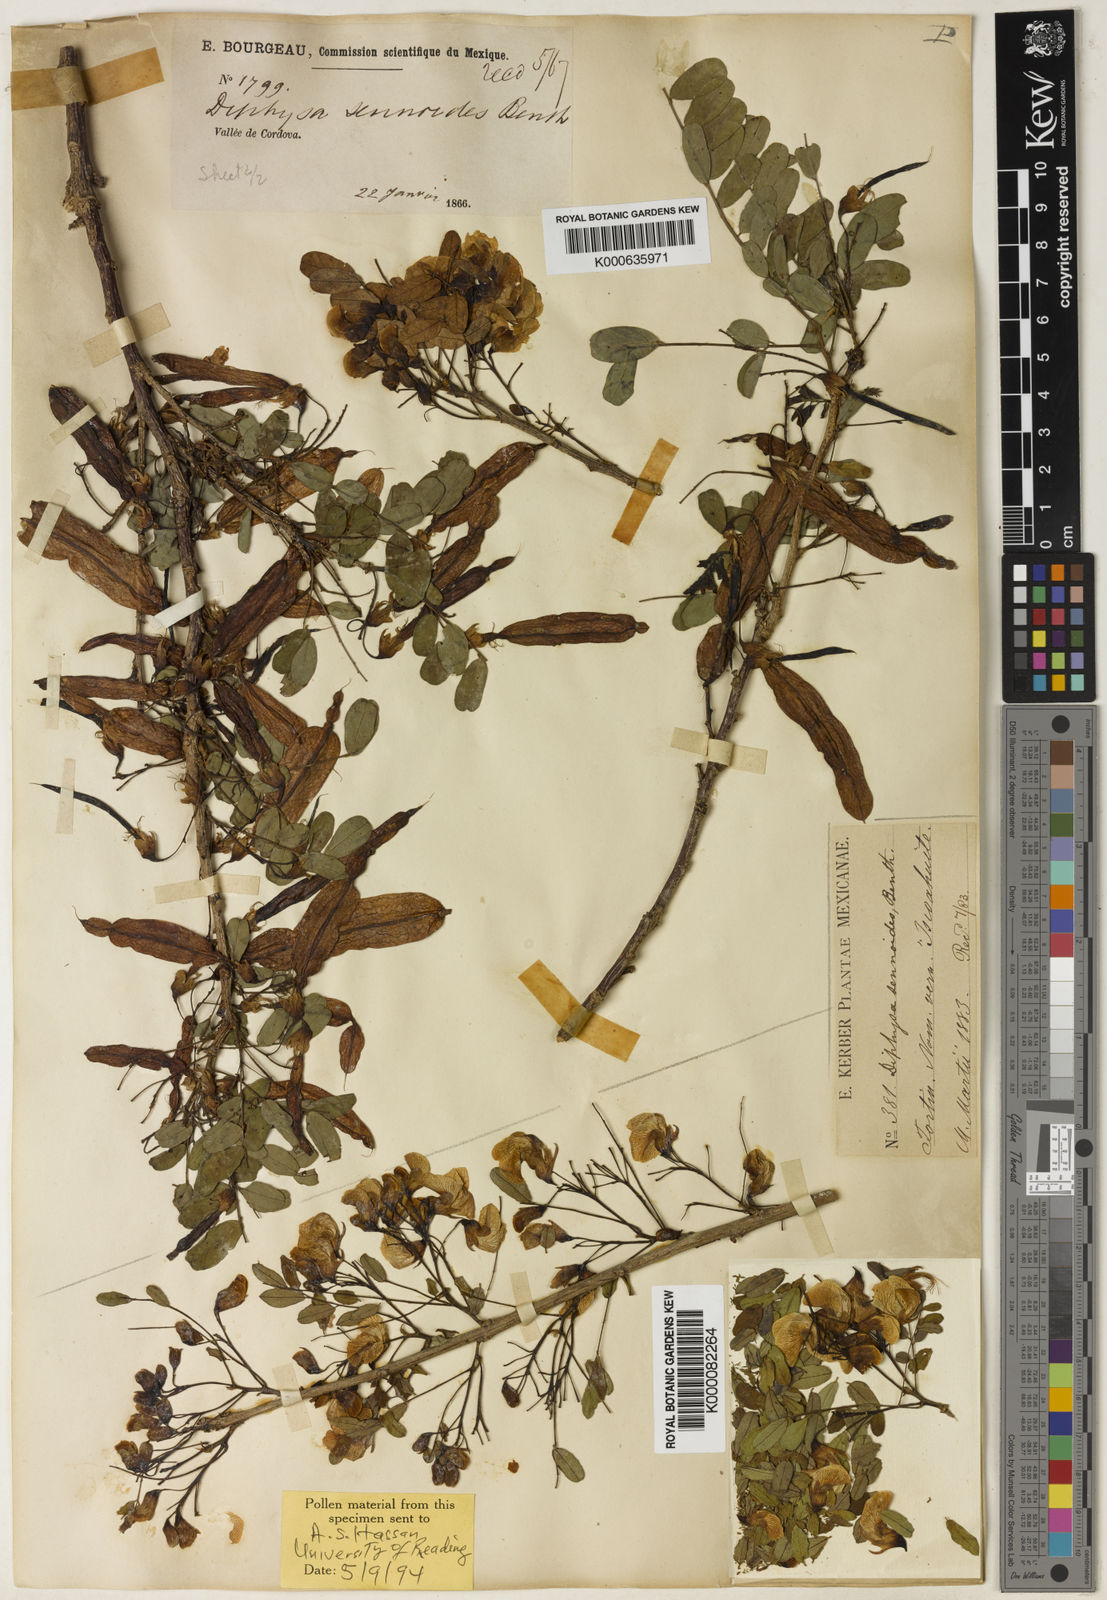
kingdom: Plantae
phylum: Tracheophyta
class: Magnoliopsida
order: Fabales
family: Fabaceae
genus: Diphysa
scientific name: Diphysa sennoides
